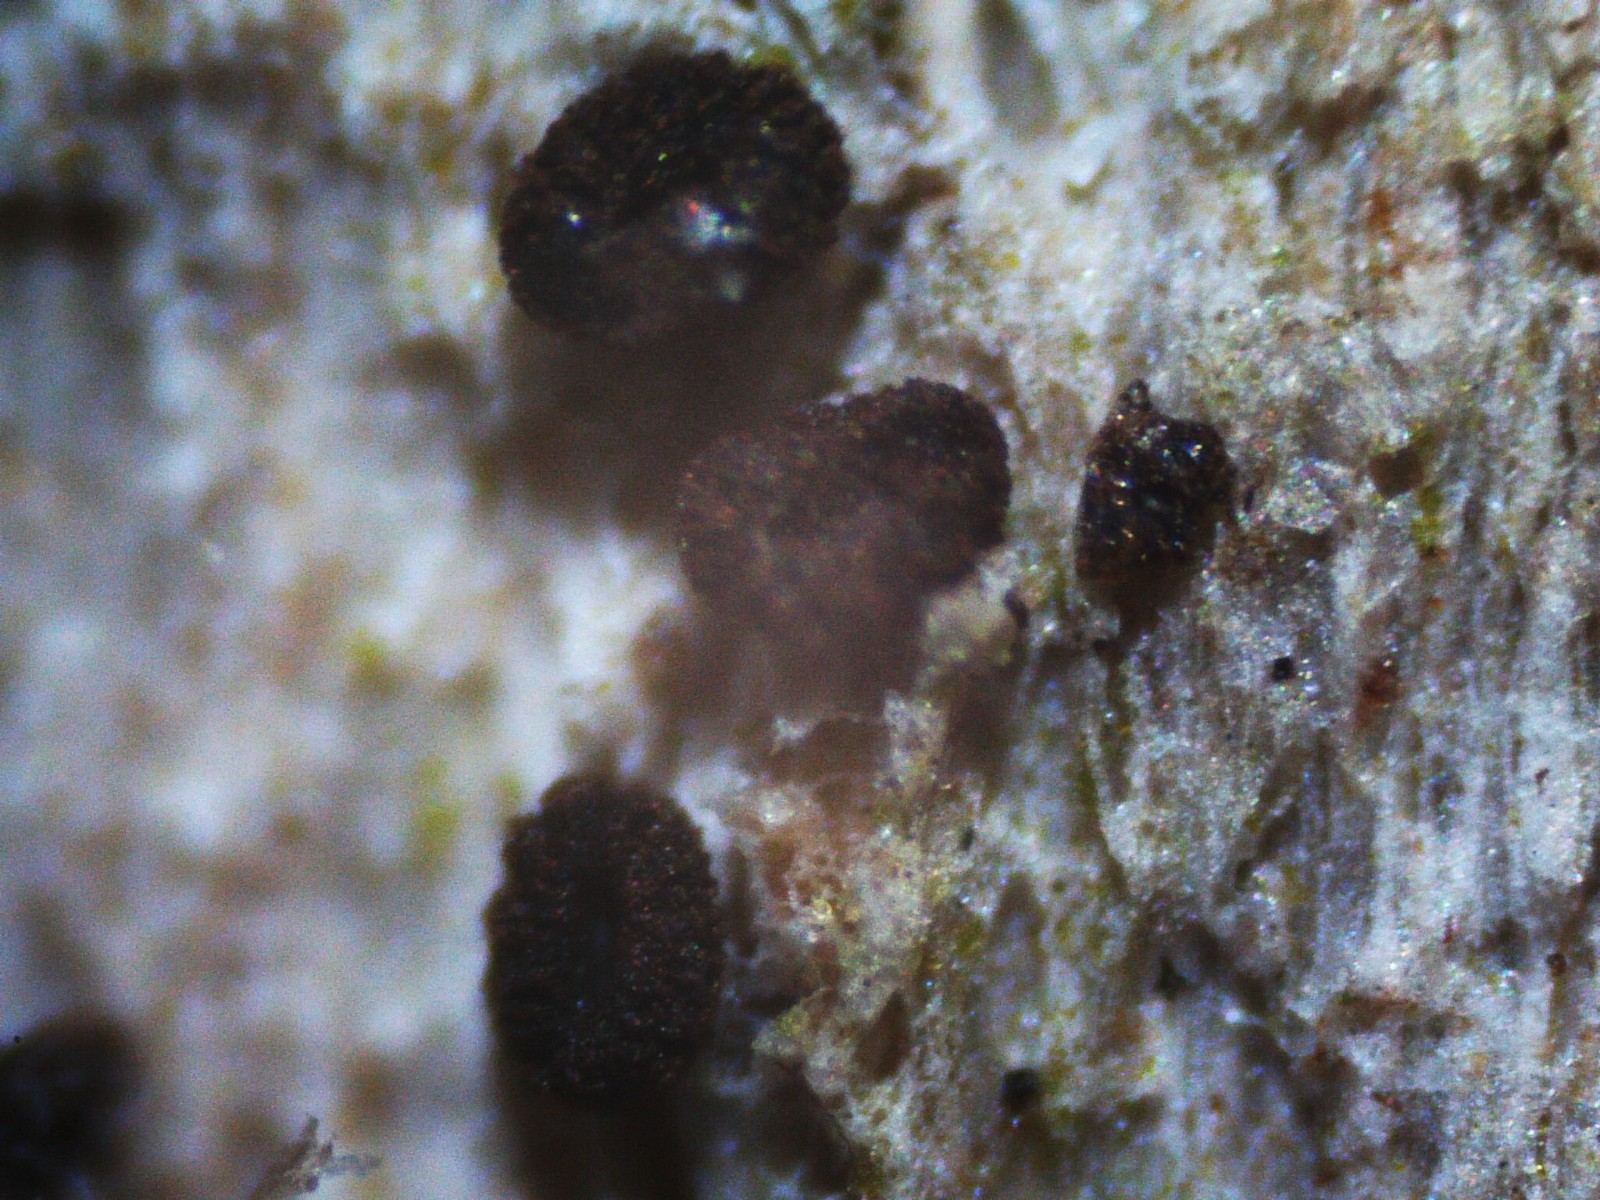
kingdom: Fungi
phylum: Ascomycota
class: Leotiomycetes
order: Helotiales
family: Mollisiaceae
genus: Mollisia
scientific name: Mollisia ligni
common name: ved-gråskive
